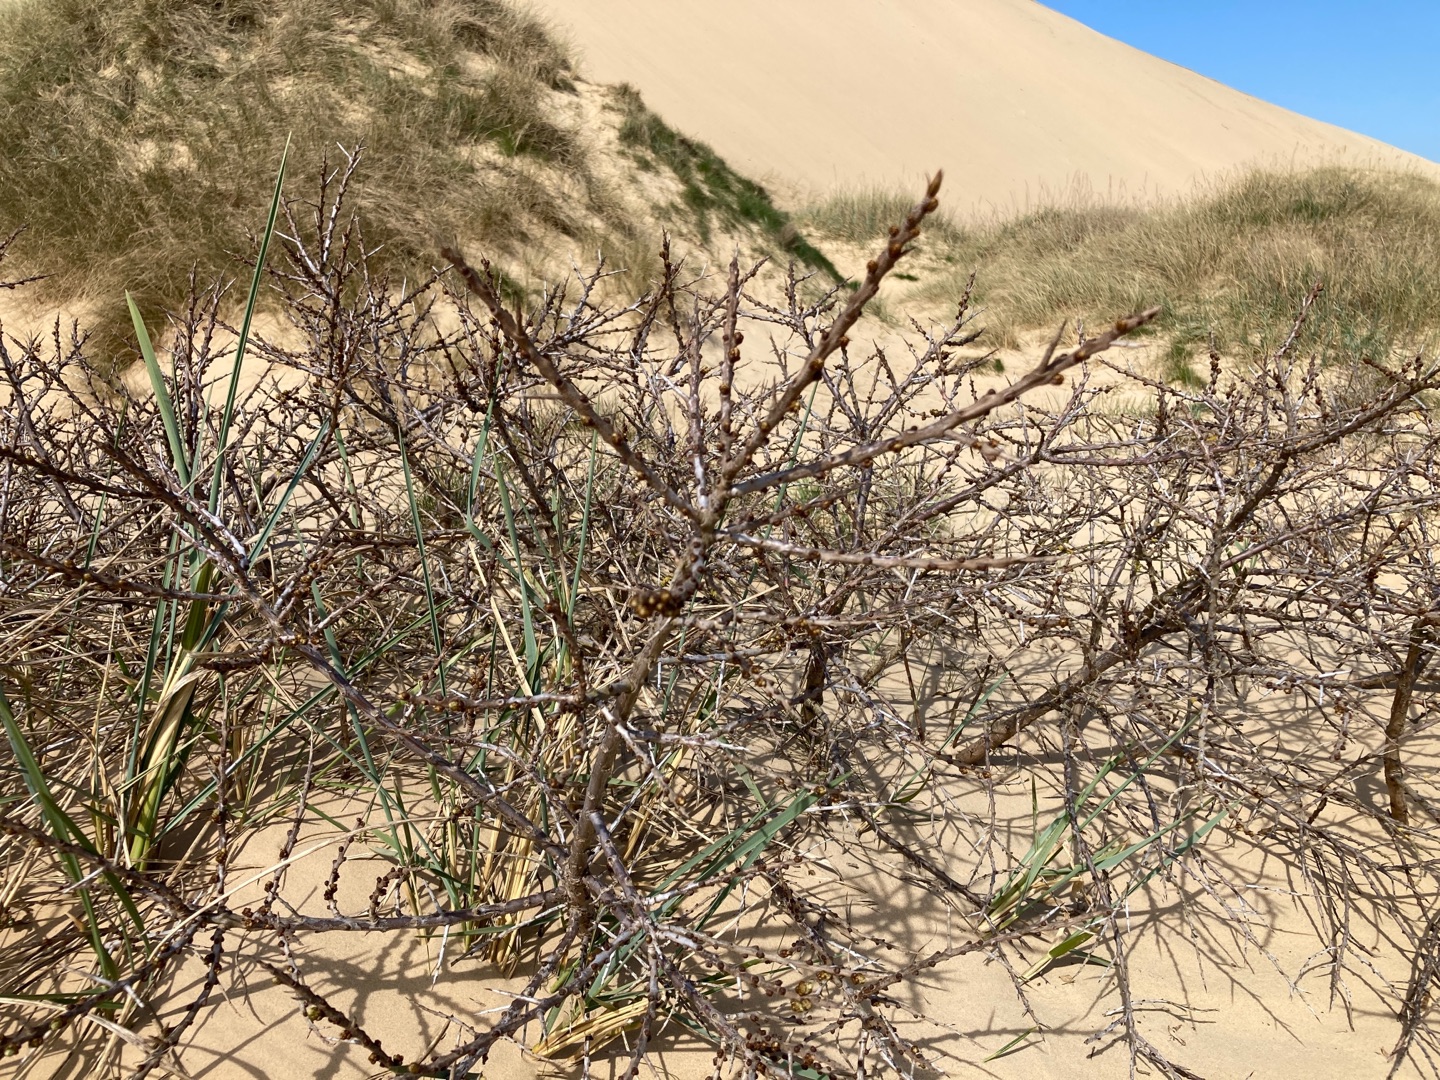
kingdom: Plantae
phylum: Tracheophyta
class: Magnoliopsida
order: Rosales
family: Elaeagnaceae
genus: Hippophae
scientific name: Hippophae rhamnoides
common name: Havtorn
